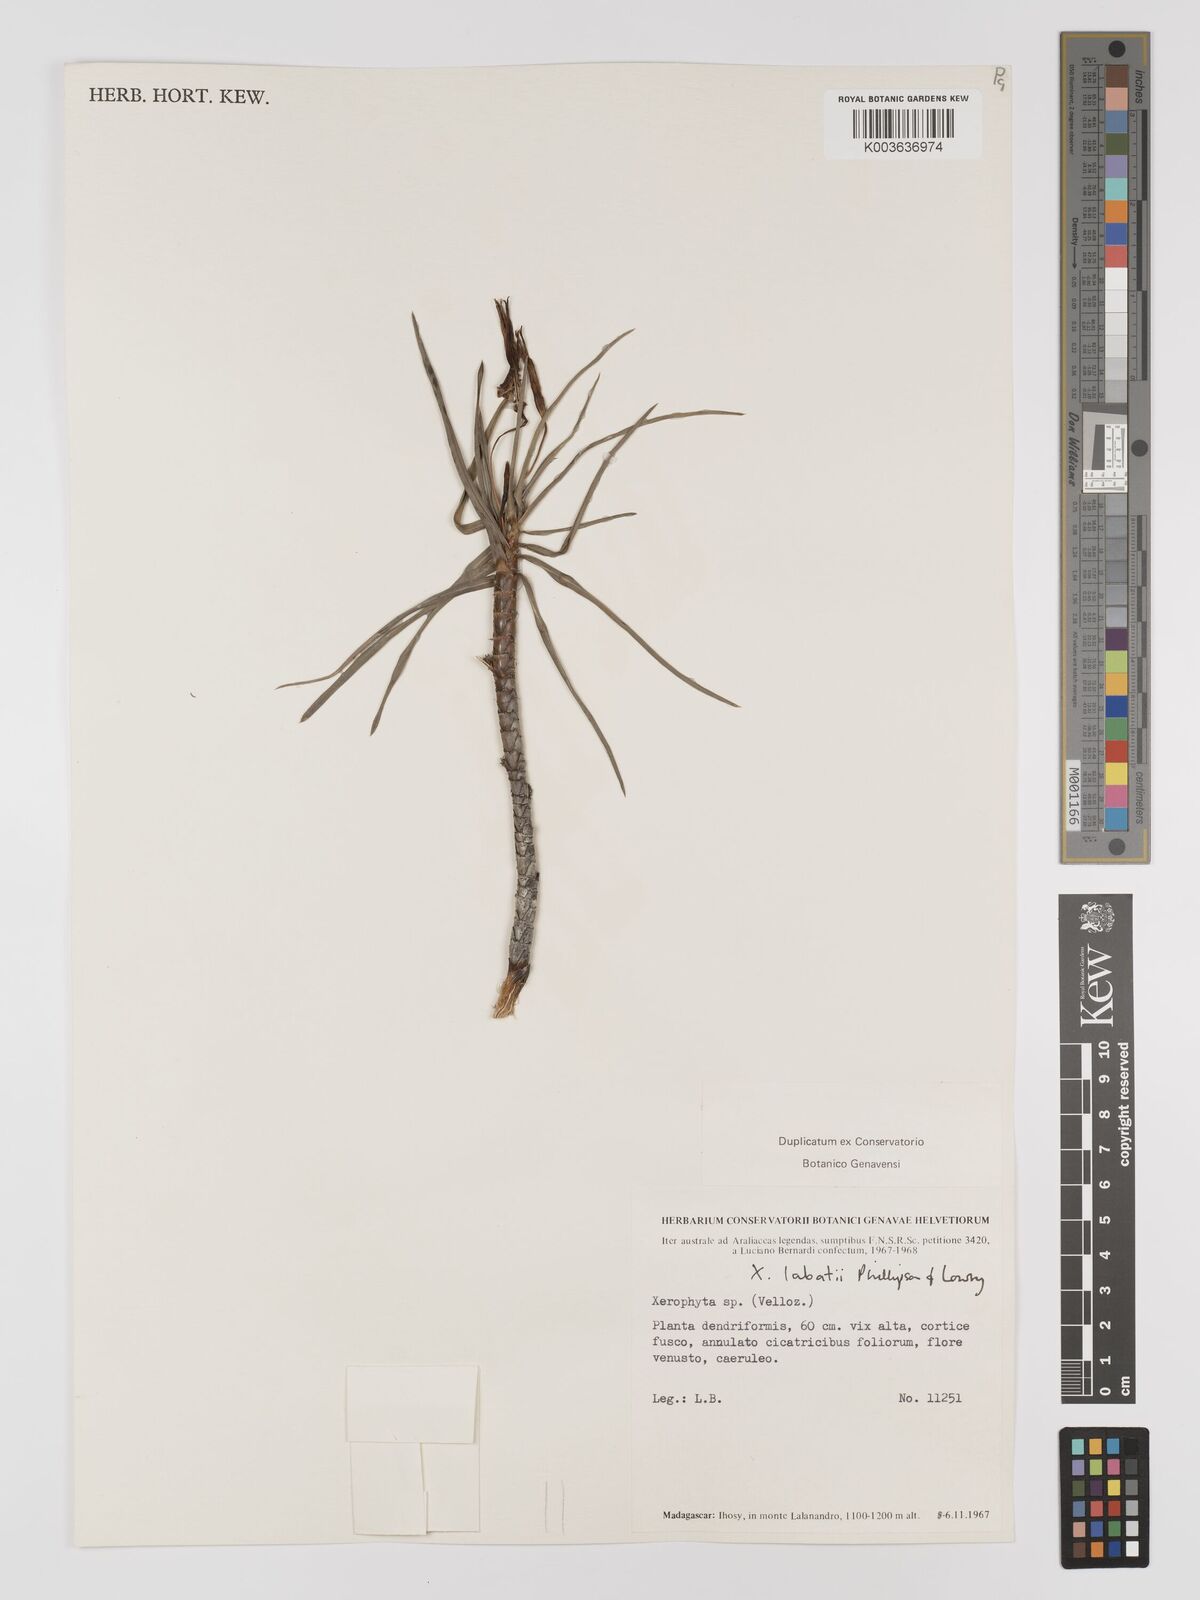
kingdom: Plantae
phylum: Tracheophyta
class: Liliopsida
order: Pandanales
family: Velloziaceae
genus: Xerophyta
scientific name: Xerophyta
